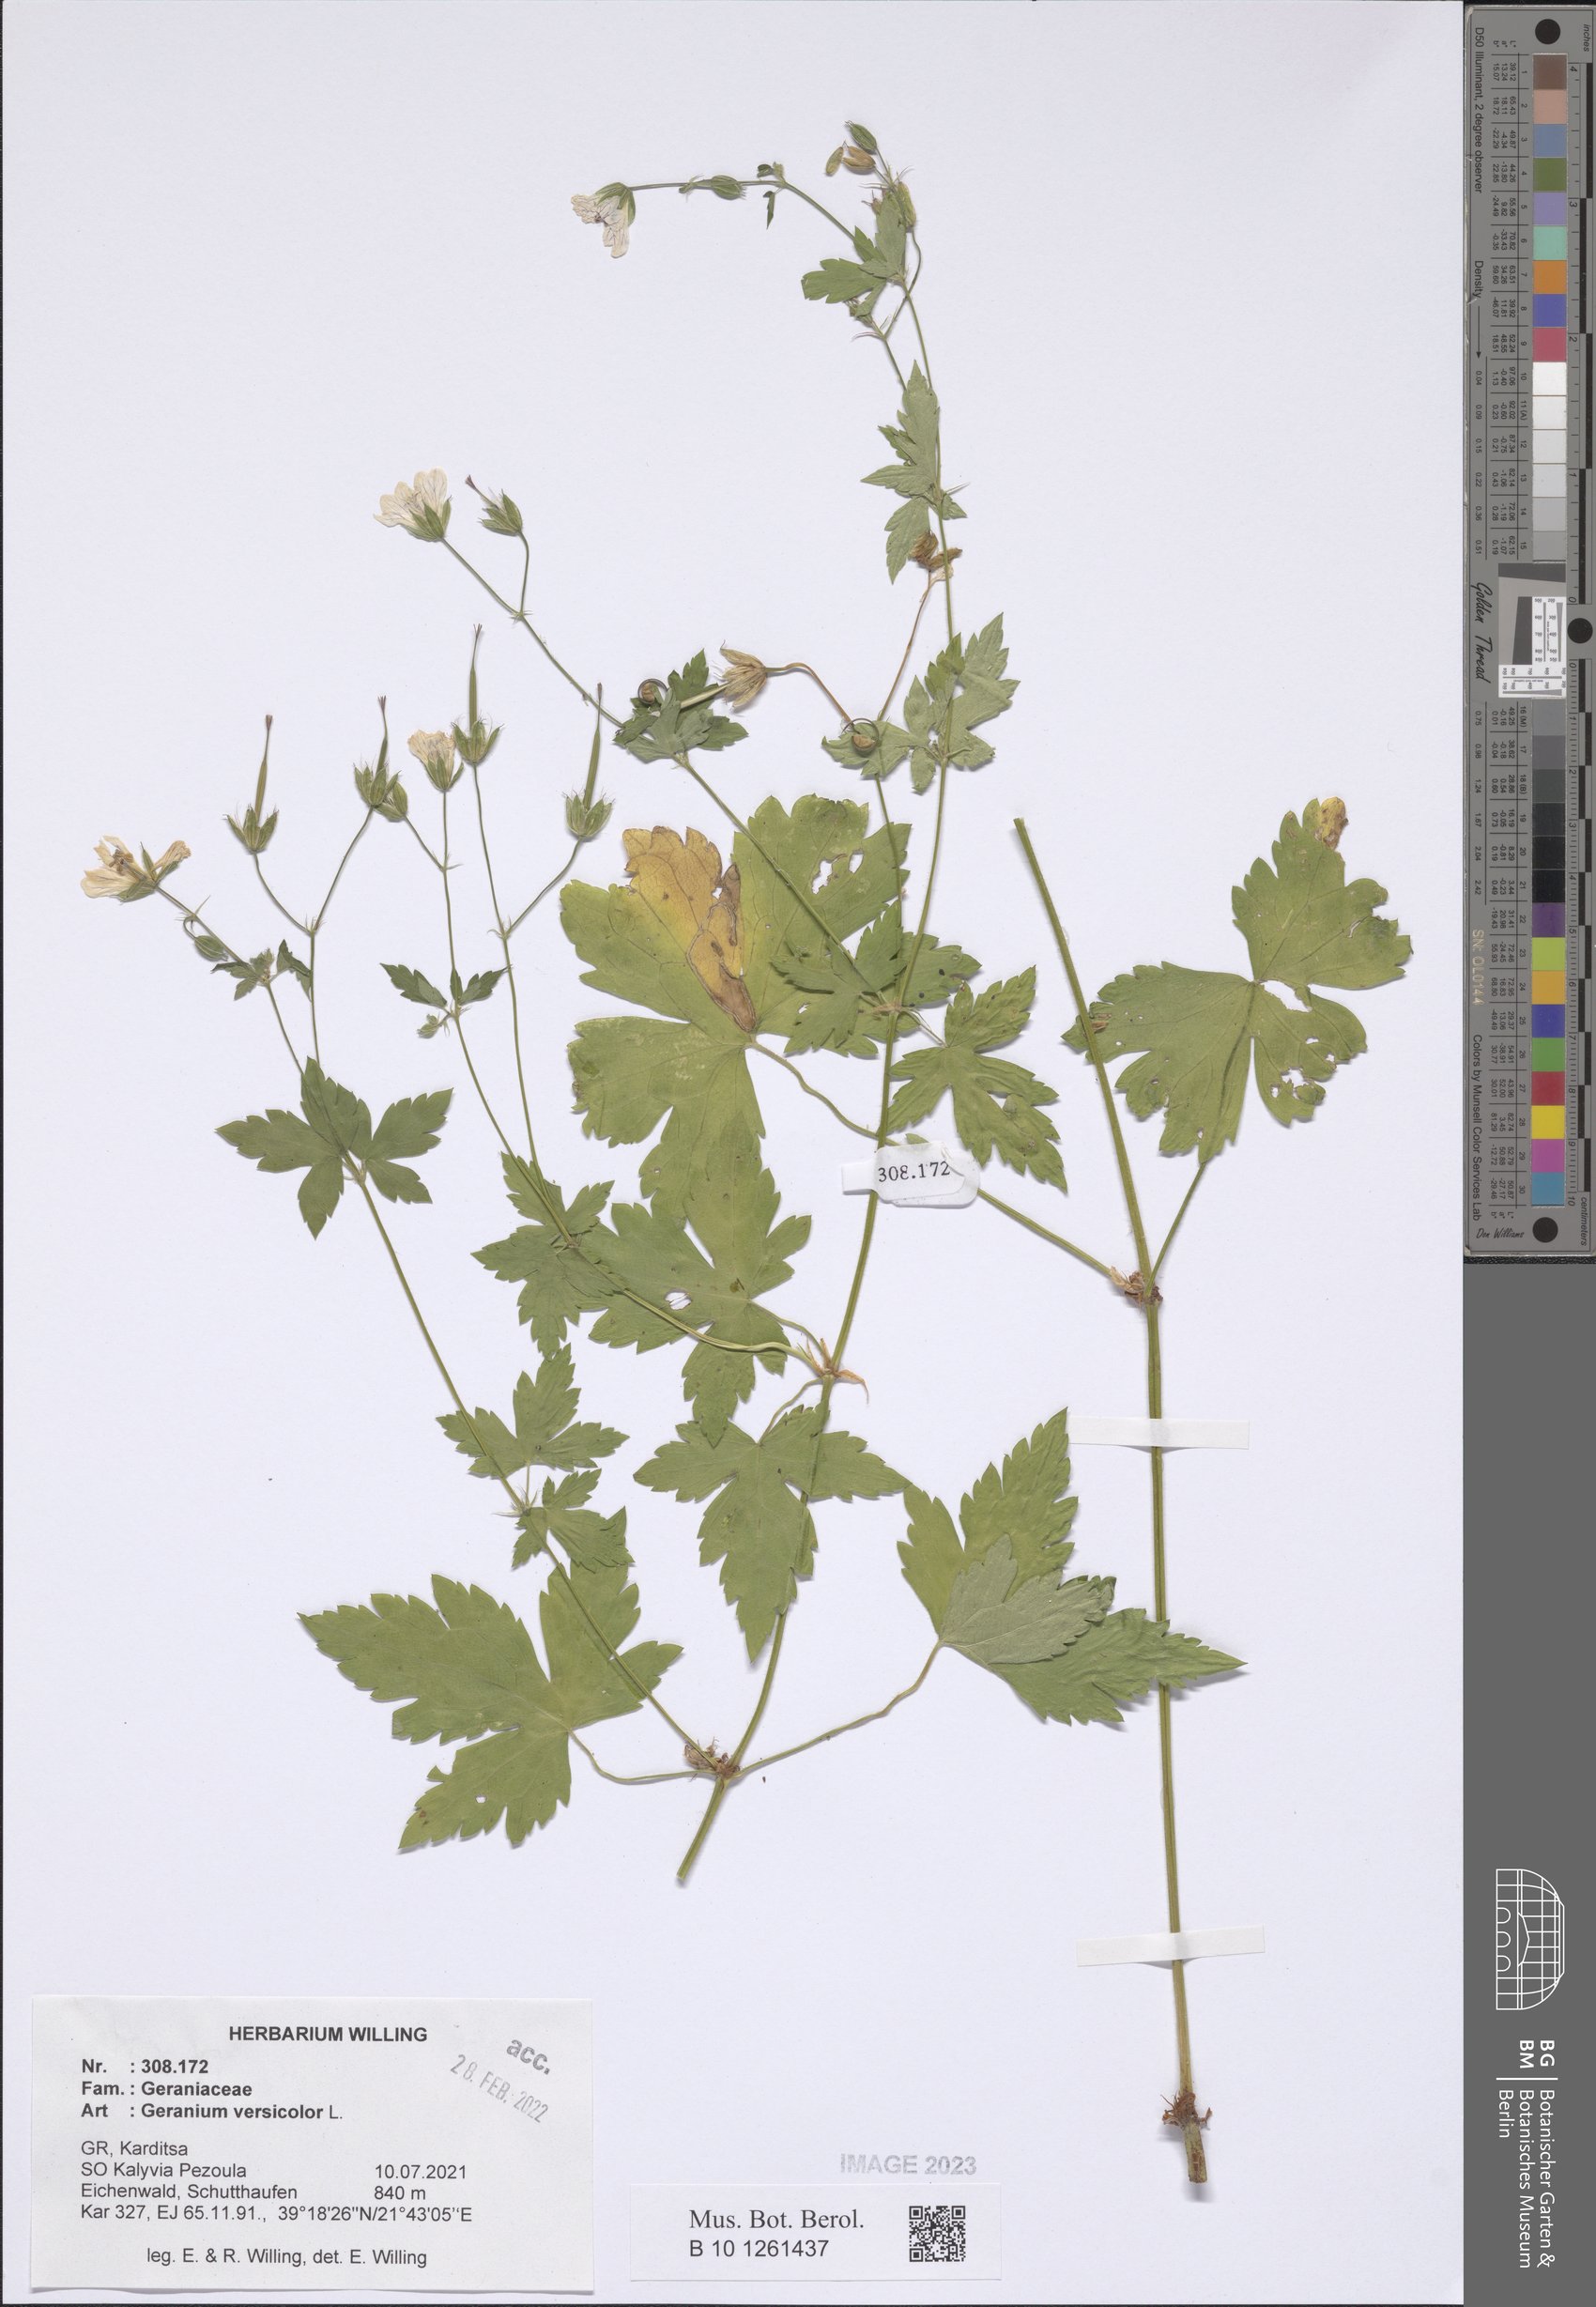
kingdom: Plantae
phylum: Tracheophyta
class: Magnoliopsida
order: Geraniales
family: Geraniaceae
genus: Geranium
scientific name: Geranium versicolor
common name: Pencilled crane's-bill
